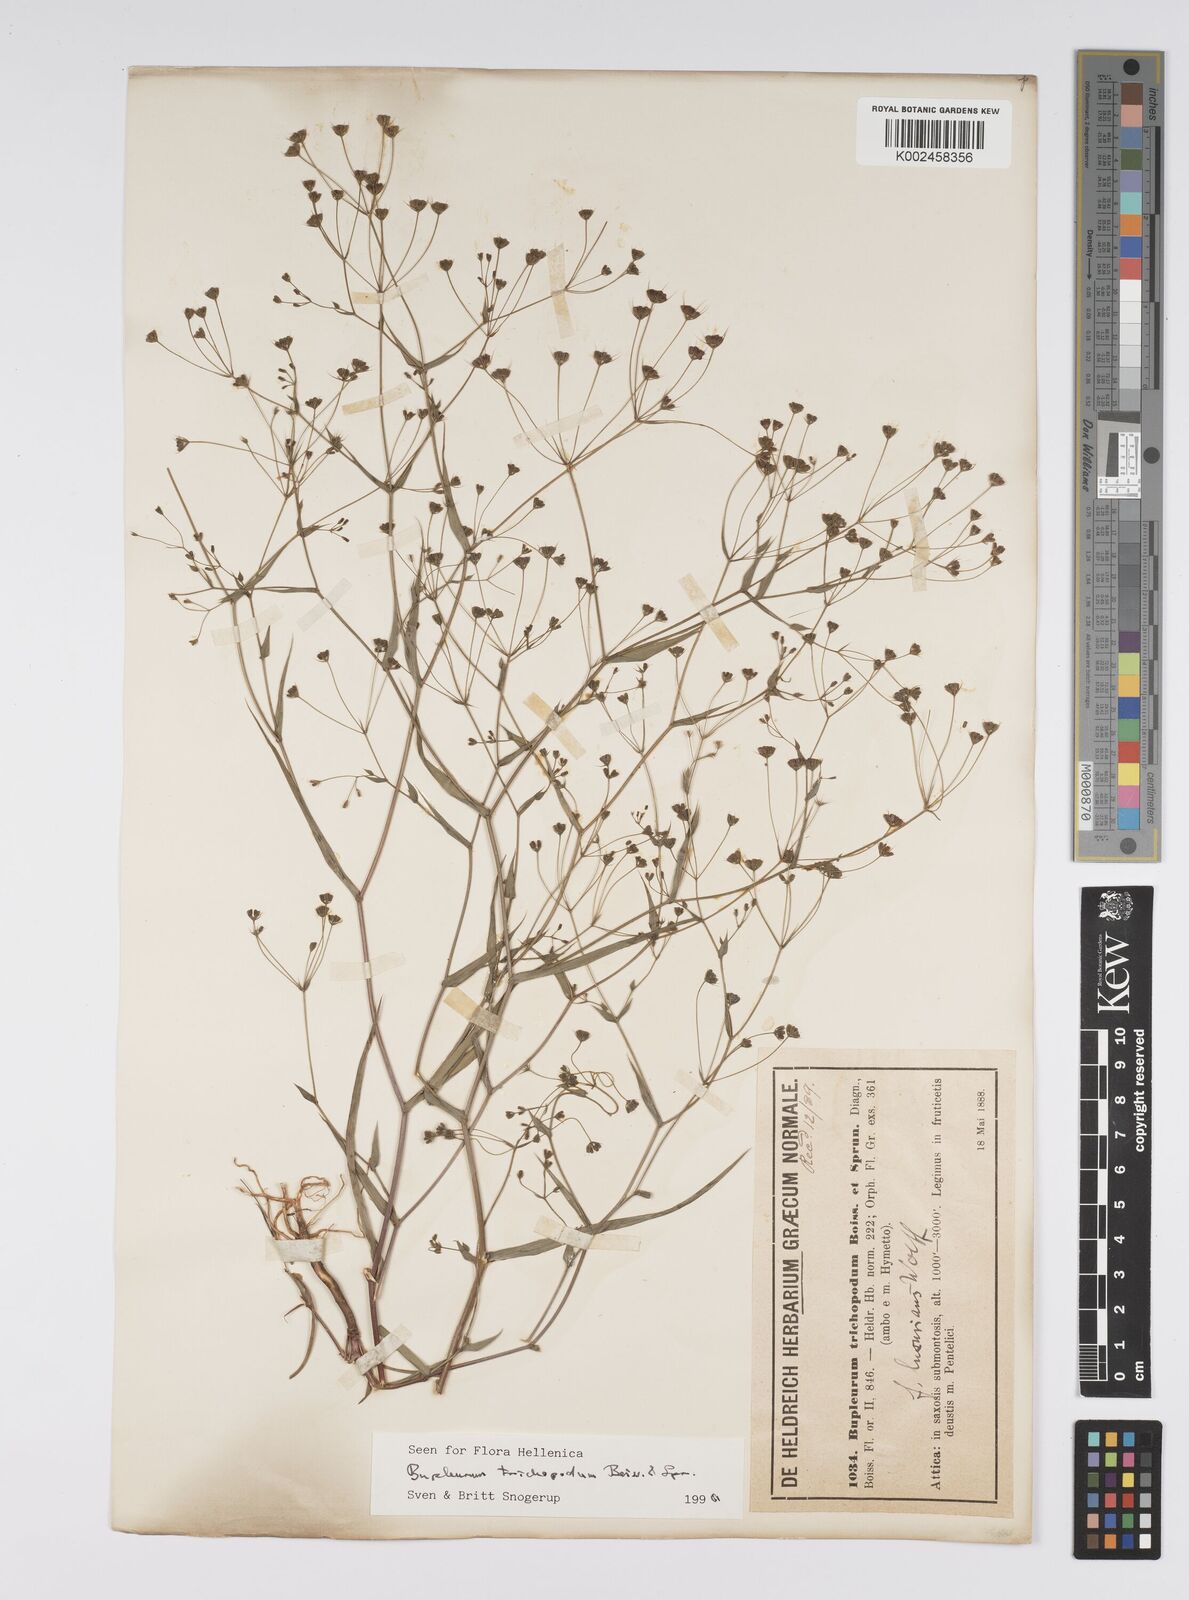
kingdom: Plantae
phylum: Tracheophyta
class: Magnoliopsida
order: Apiales
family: Apiaceae
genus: Bupleurum
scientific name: Bupleurum trichopodum
